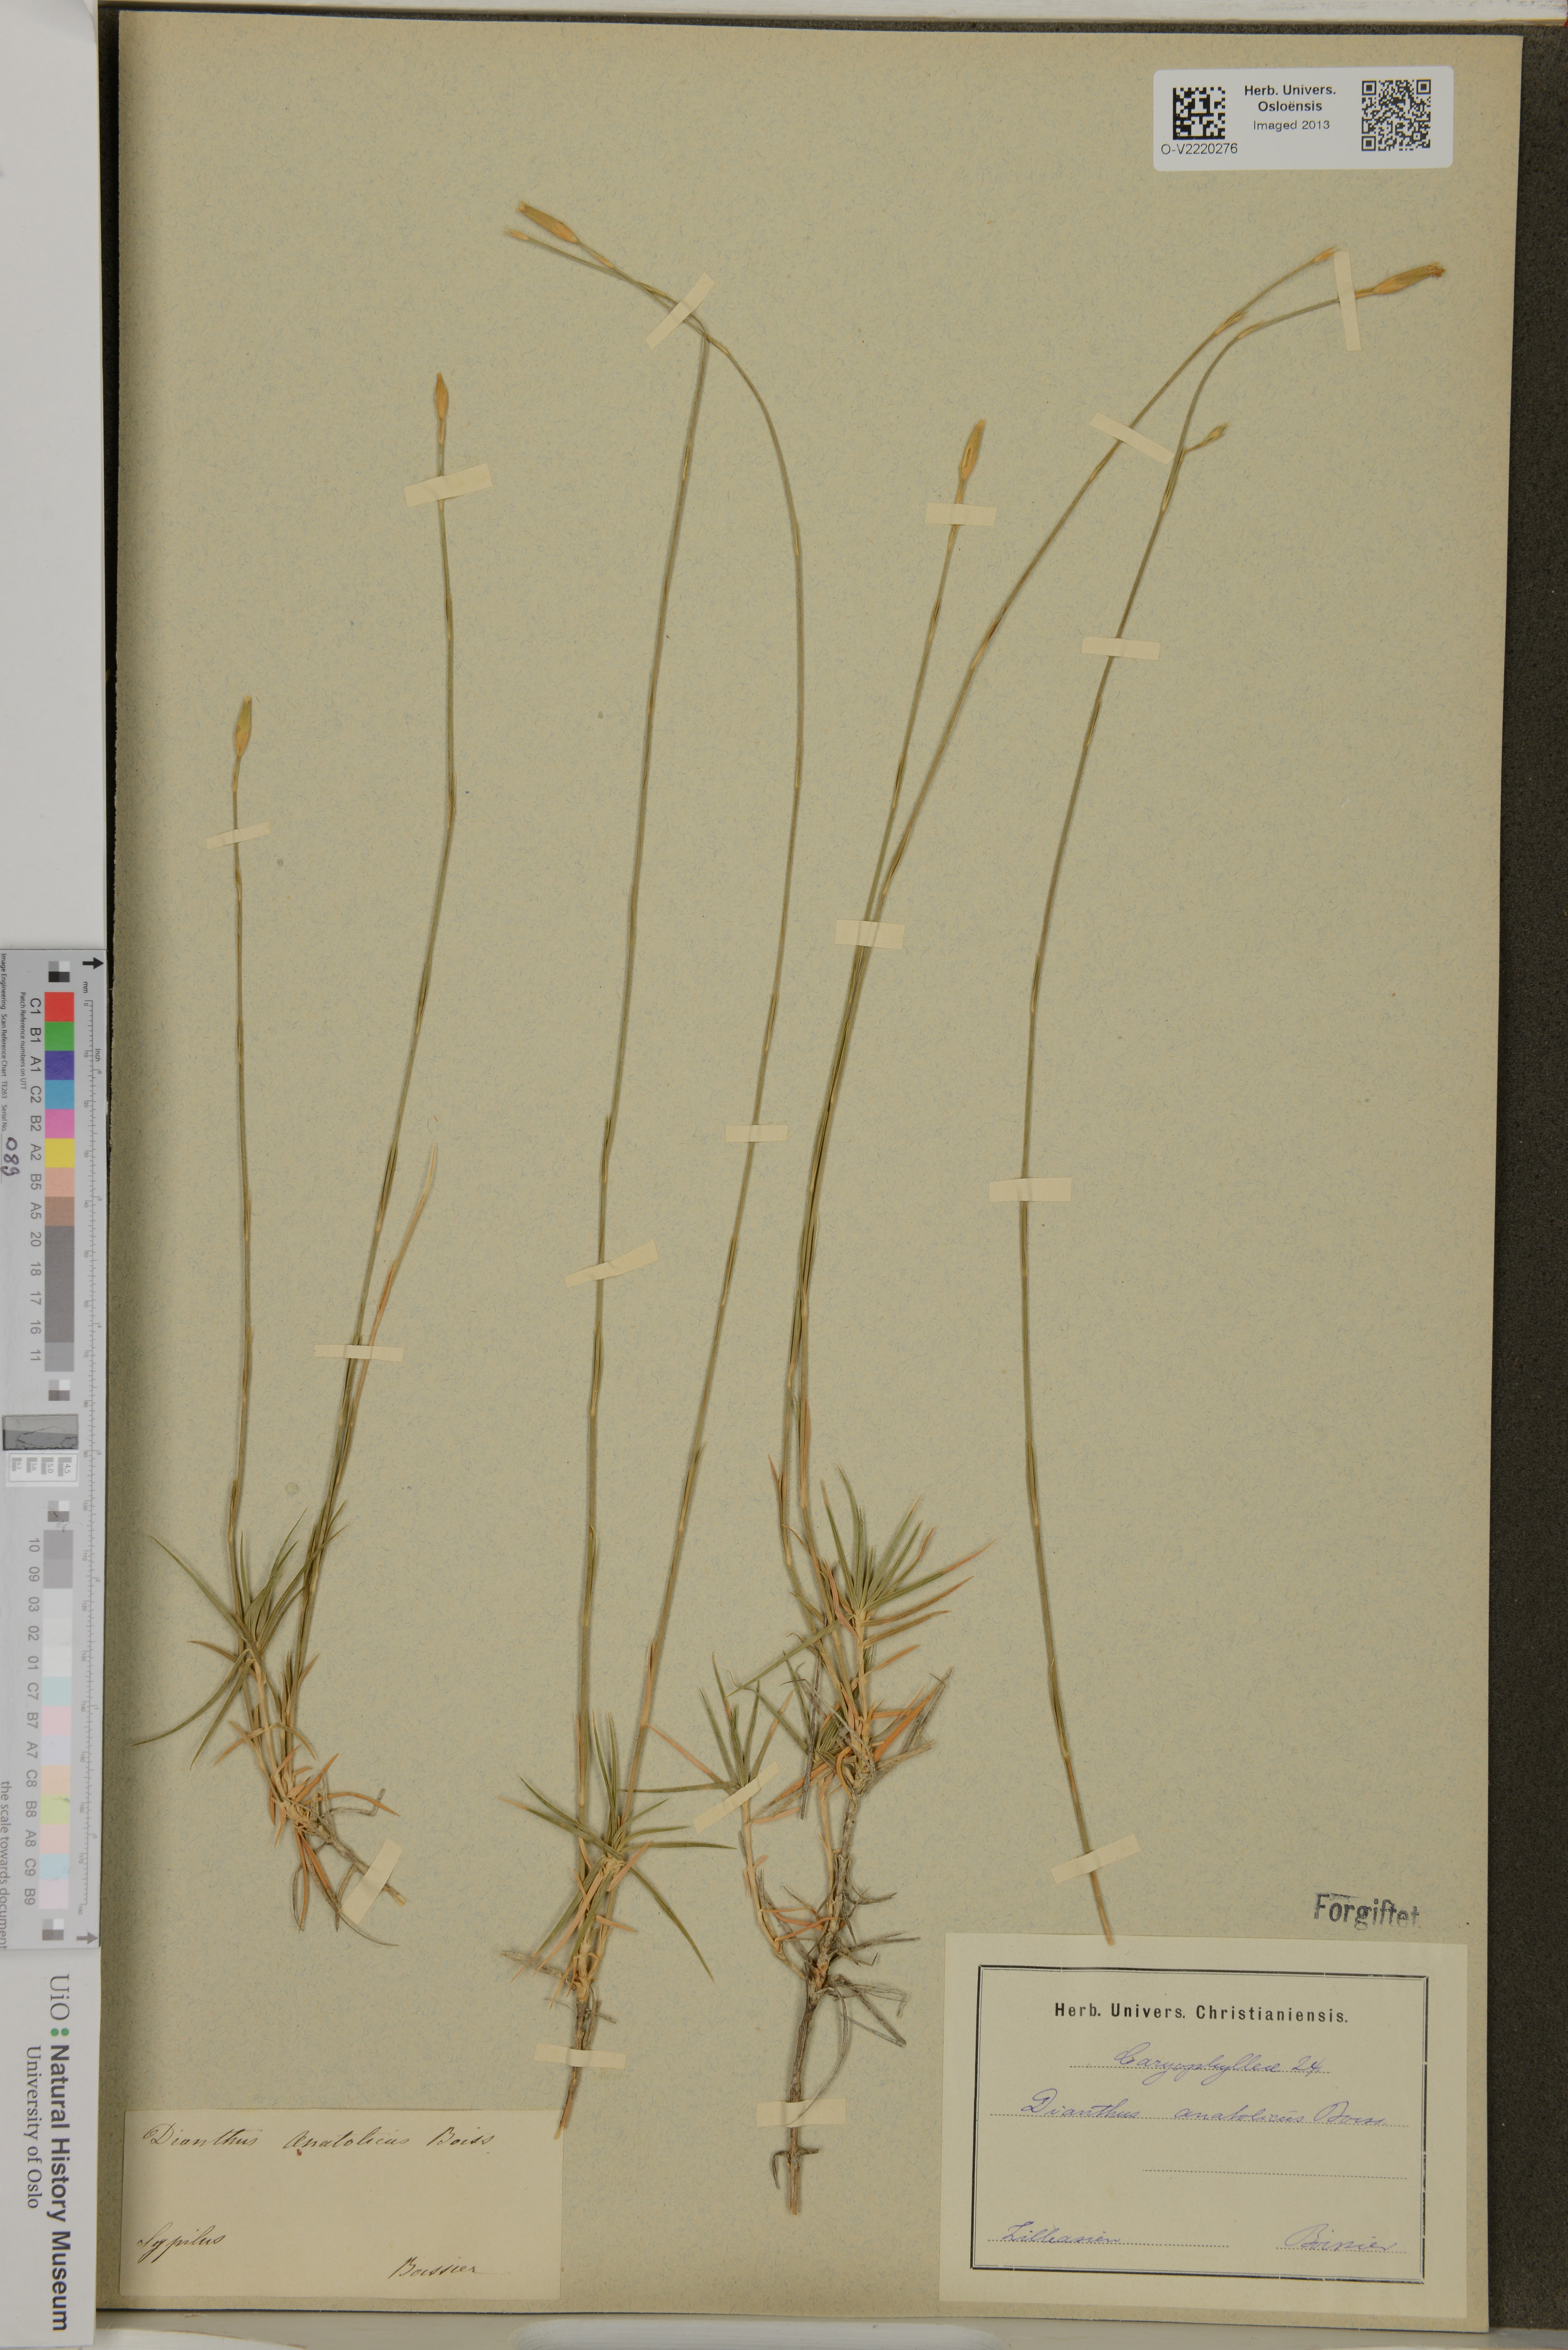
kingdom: Plantae
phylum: Tracheophyta
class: Magnoliopsida
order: Caryophyllales
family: Caryophyllaceae
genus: Dianthus
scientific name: Dianthus anatolicus
